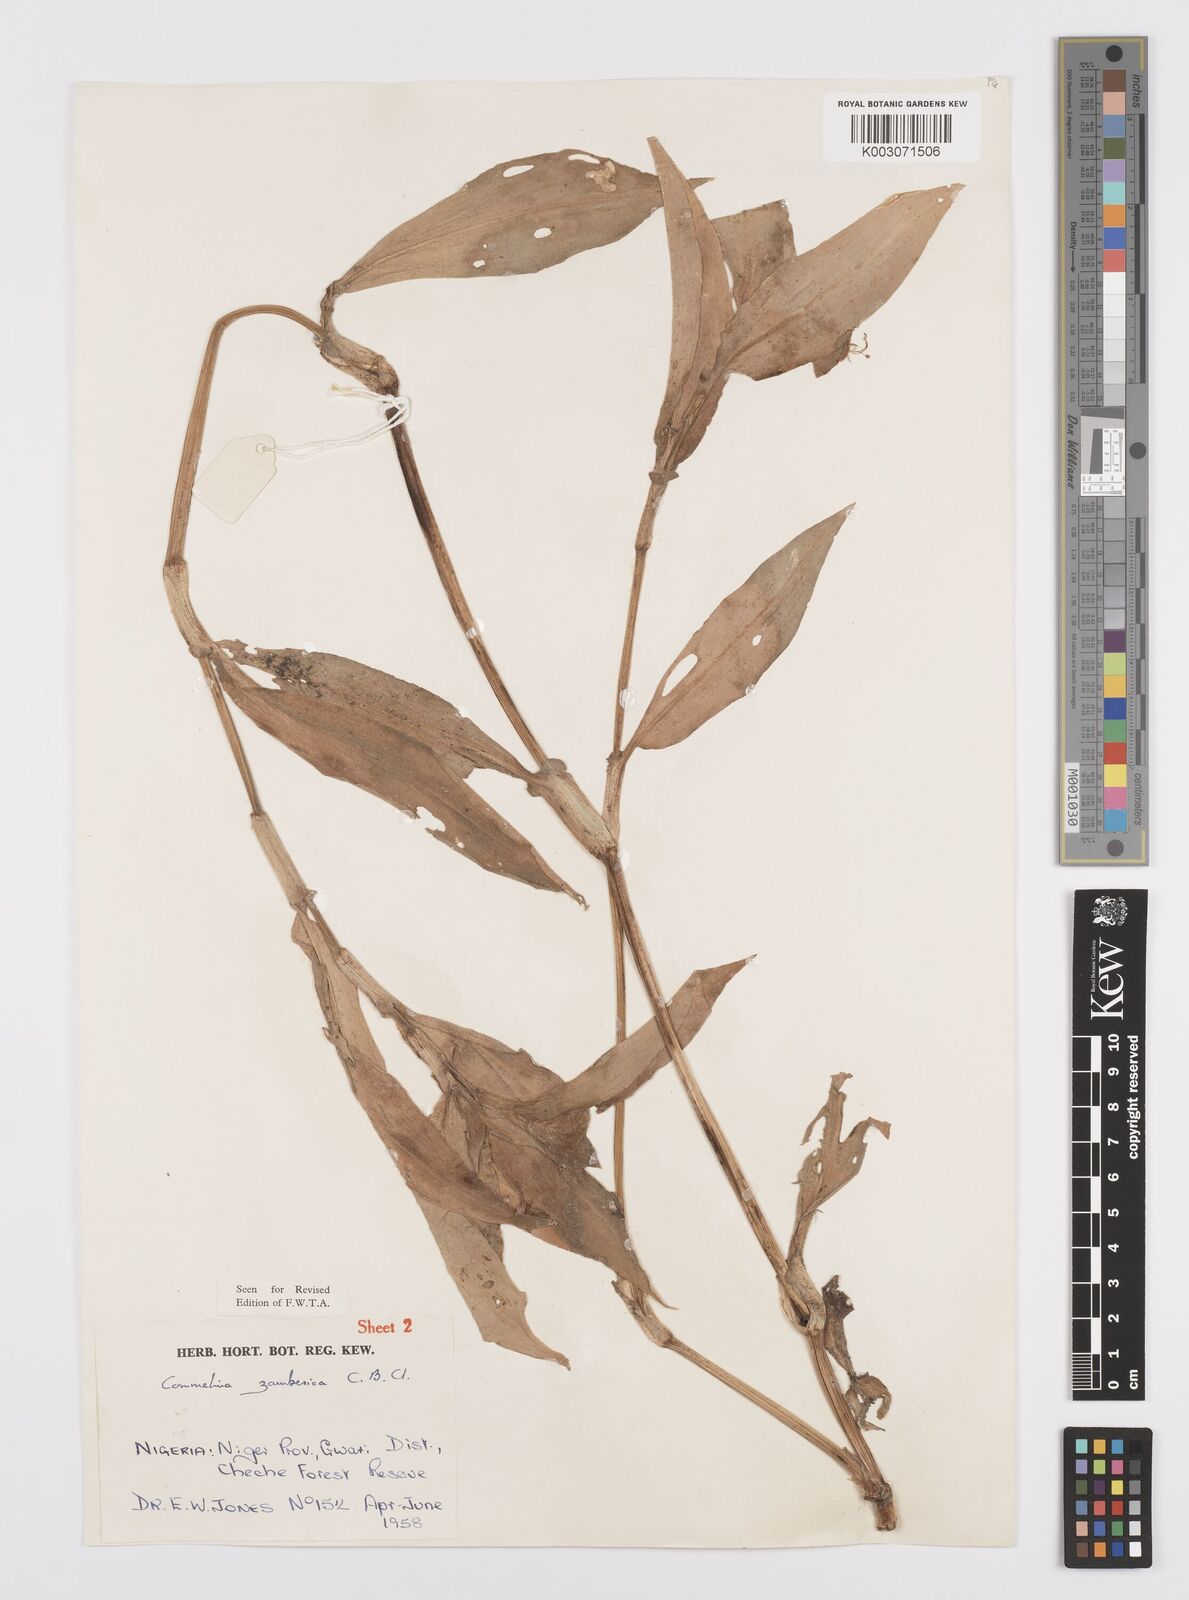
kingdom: Plantae
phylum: Tracheophyta
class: Liliopsida
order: Commelinales
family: Commelinaceae
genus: Commelina
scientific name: Commelina zambesica
